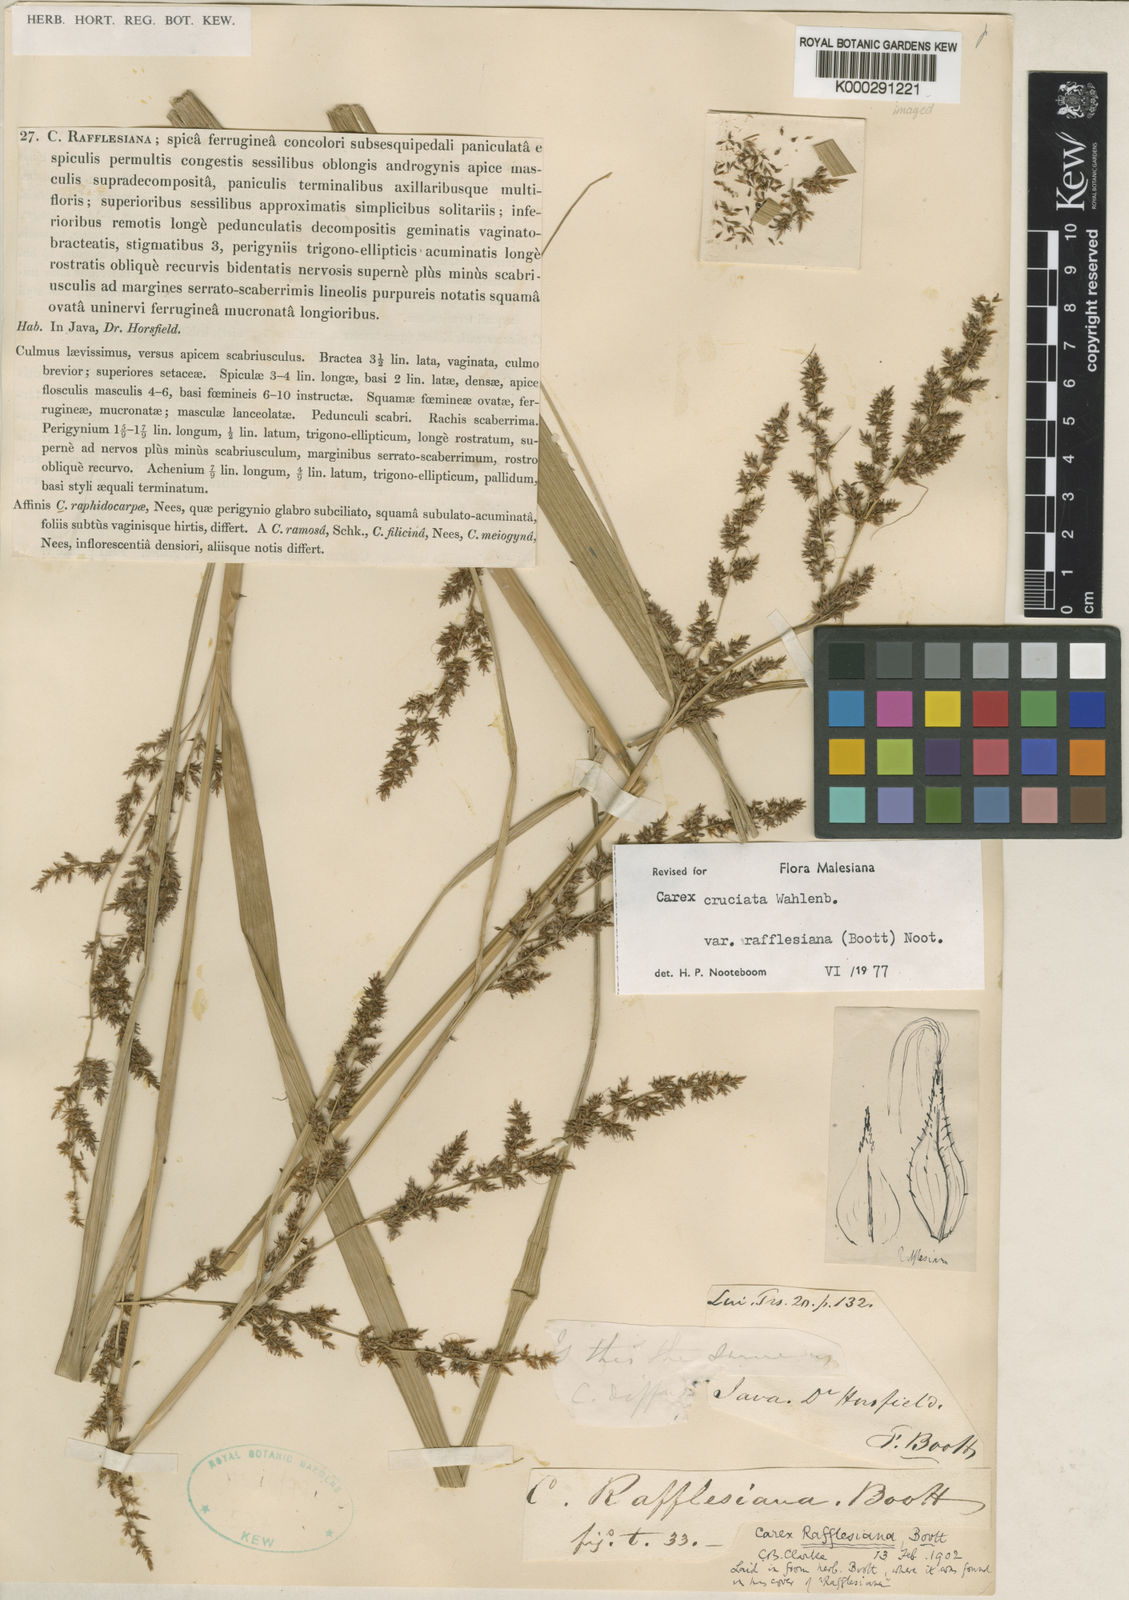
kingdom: Plantae
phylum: Tracheophyta
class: Liliopsida
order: Poales
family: Cyperaceae
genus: Carex
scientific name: Carex rafflesiana
